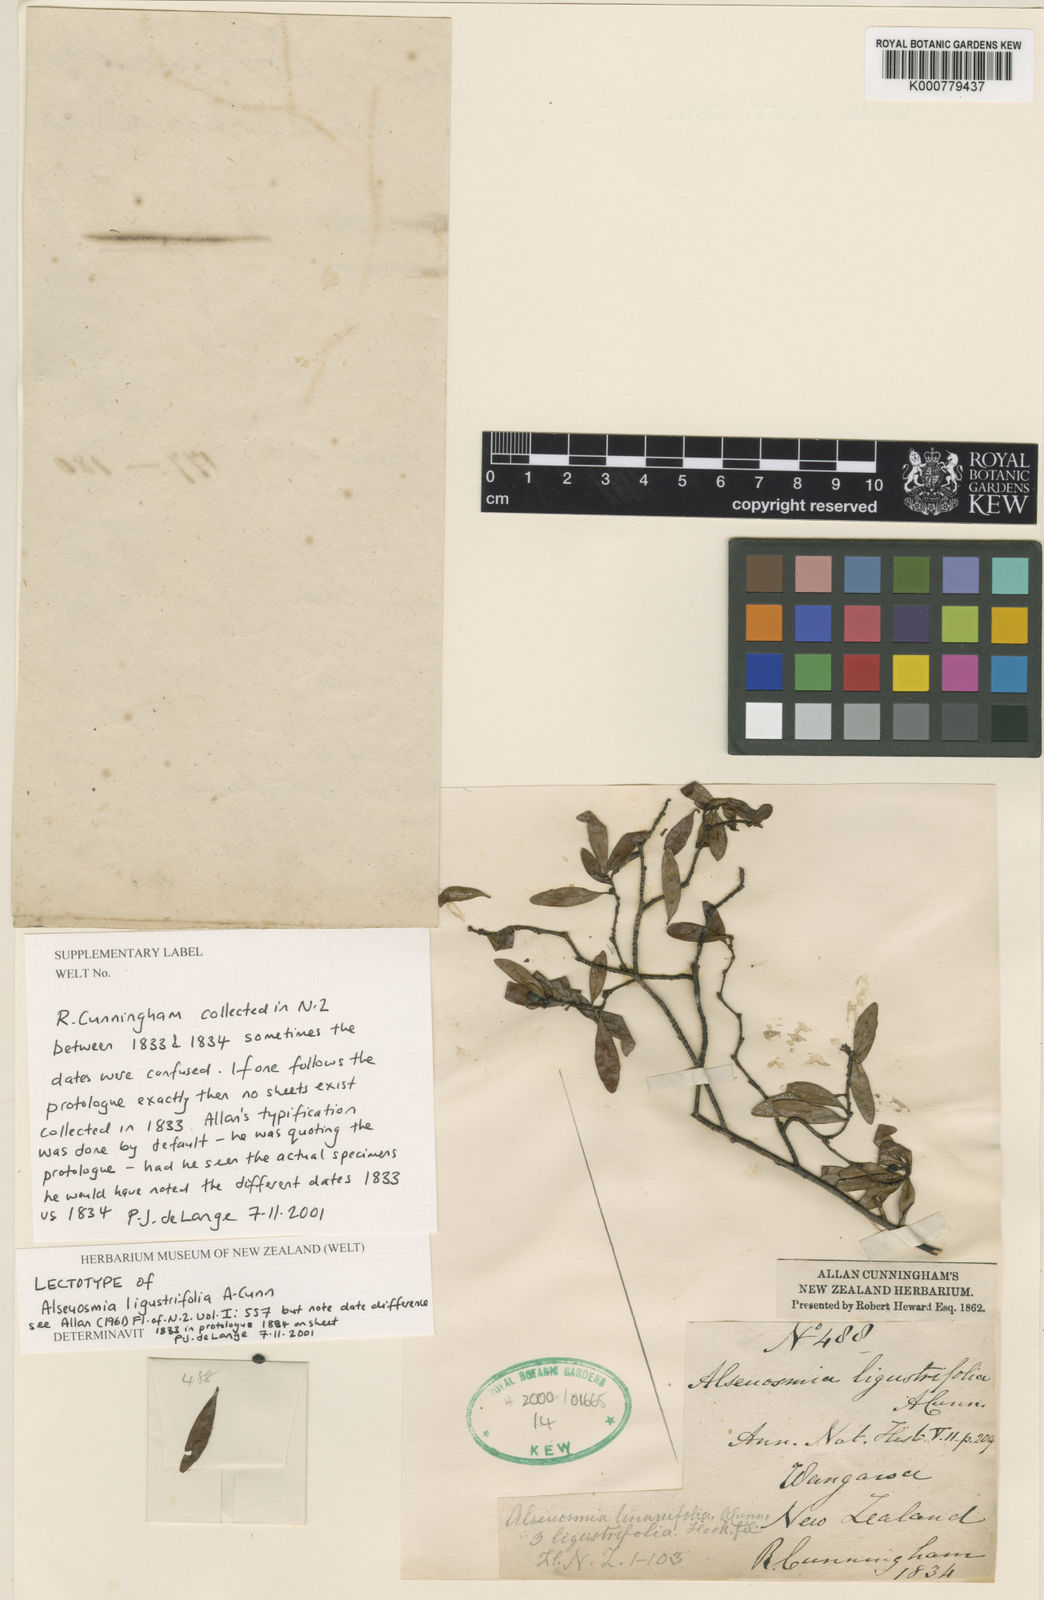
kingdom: Plantae
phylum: Tracheophyta
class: Magnoliopsida
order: Asterales
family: Alseuosmiaceae
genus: Alseuosmia
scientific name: Alseuosmia banksii
